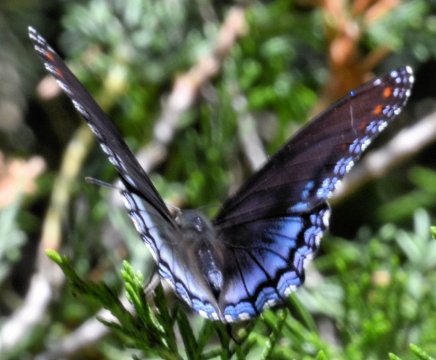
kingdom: Animalia
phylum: Arthropoda
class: Insecta
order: Lepidoptera
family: Nymphalidae
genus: Limenitis
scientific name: Limenitis arthemis
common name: Red-spotted Admiral
